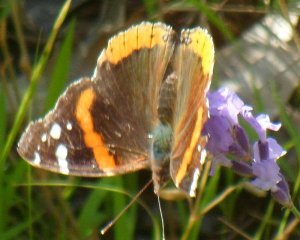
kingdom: Animalia
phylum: Arthropoda
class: Insecta
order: Lepidoptera
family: Nymphalidae
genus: Vanessa
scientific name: Vanessa atalanta
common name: Red Admiral
